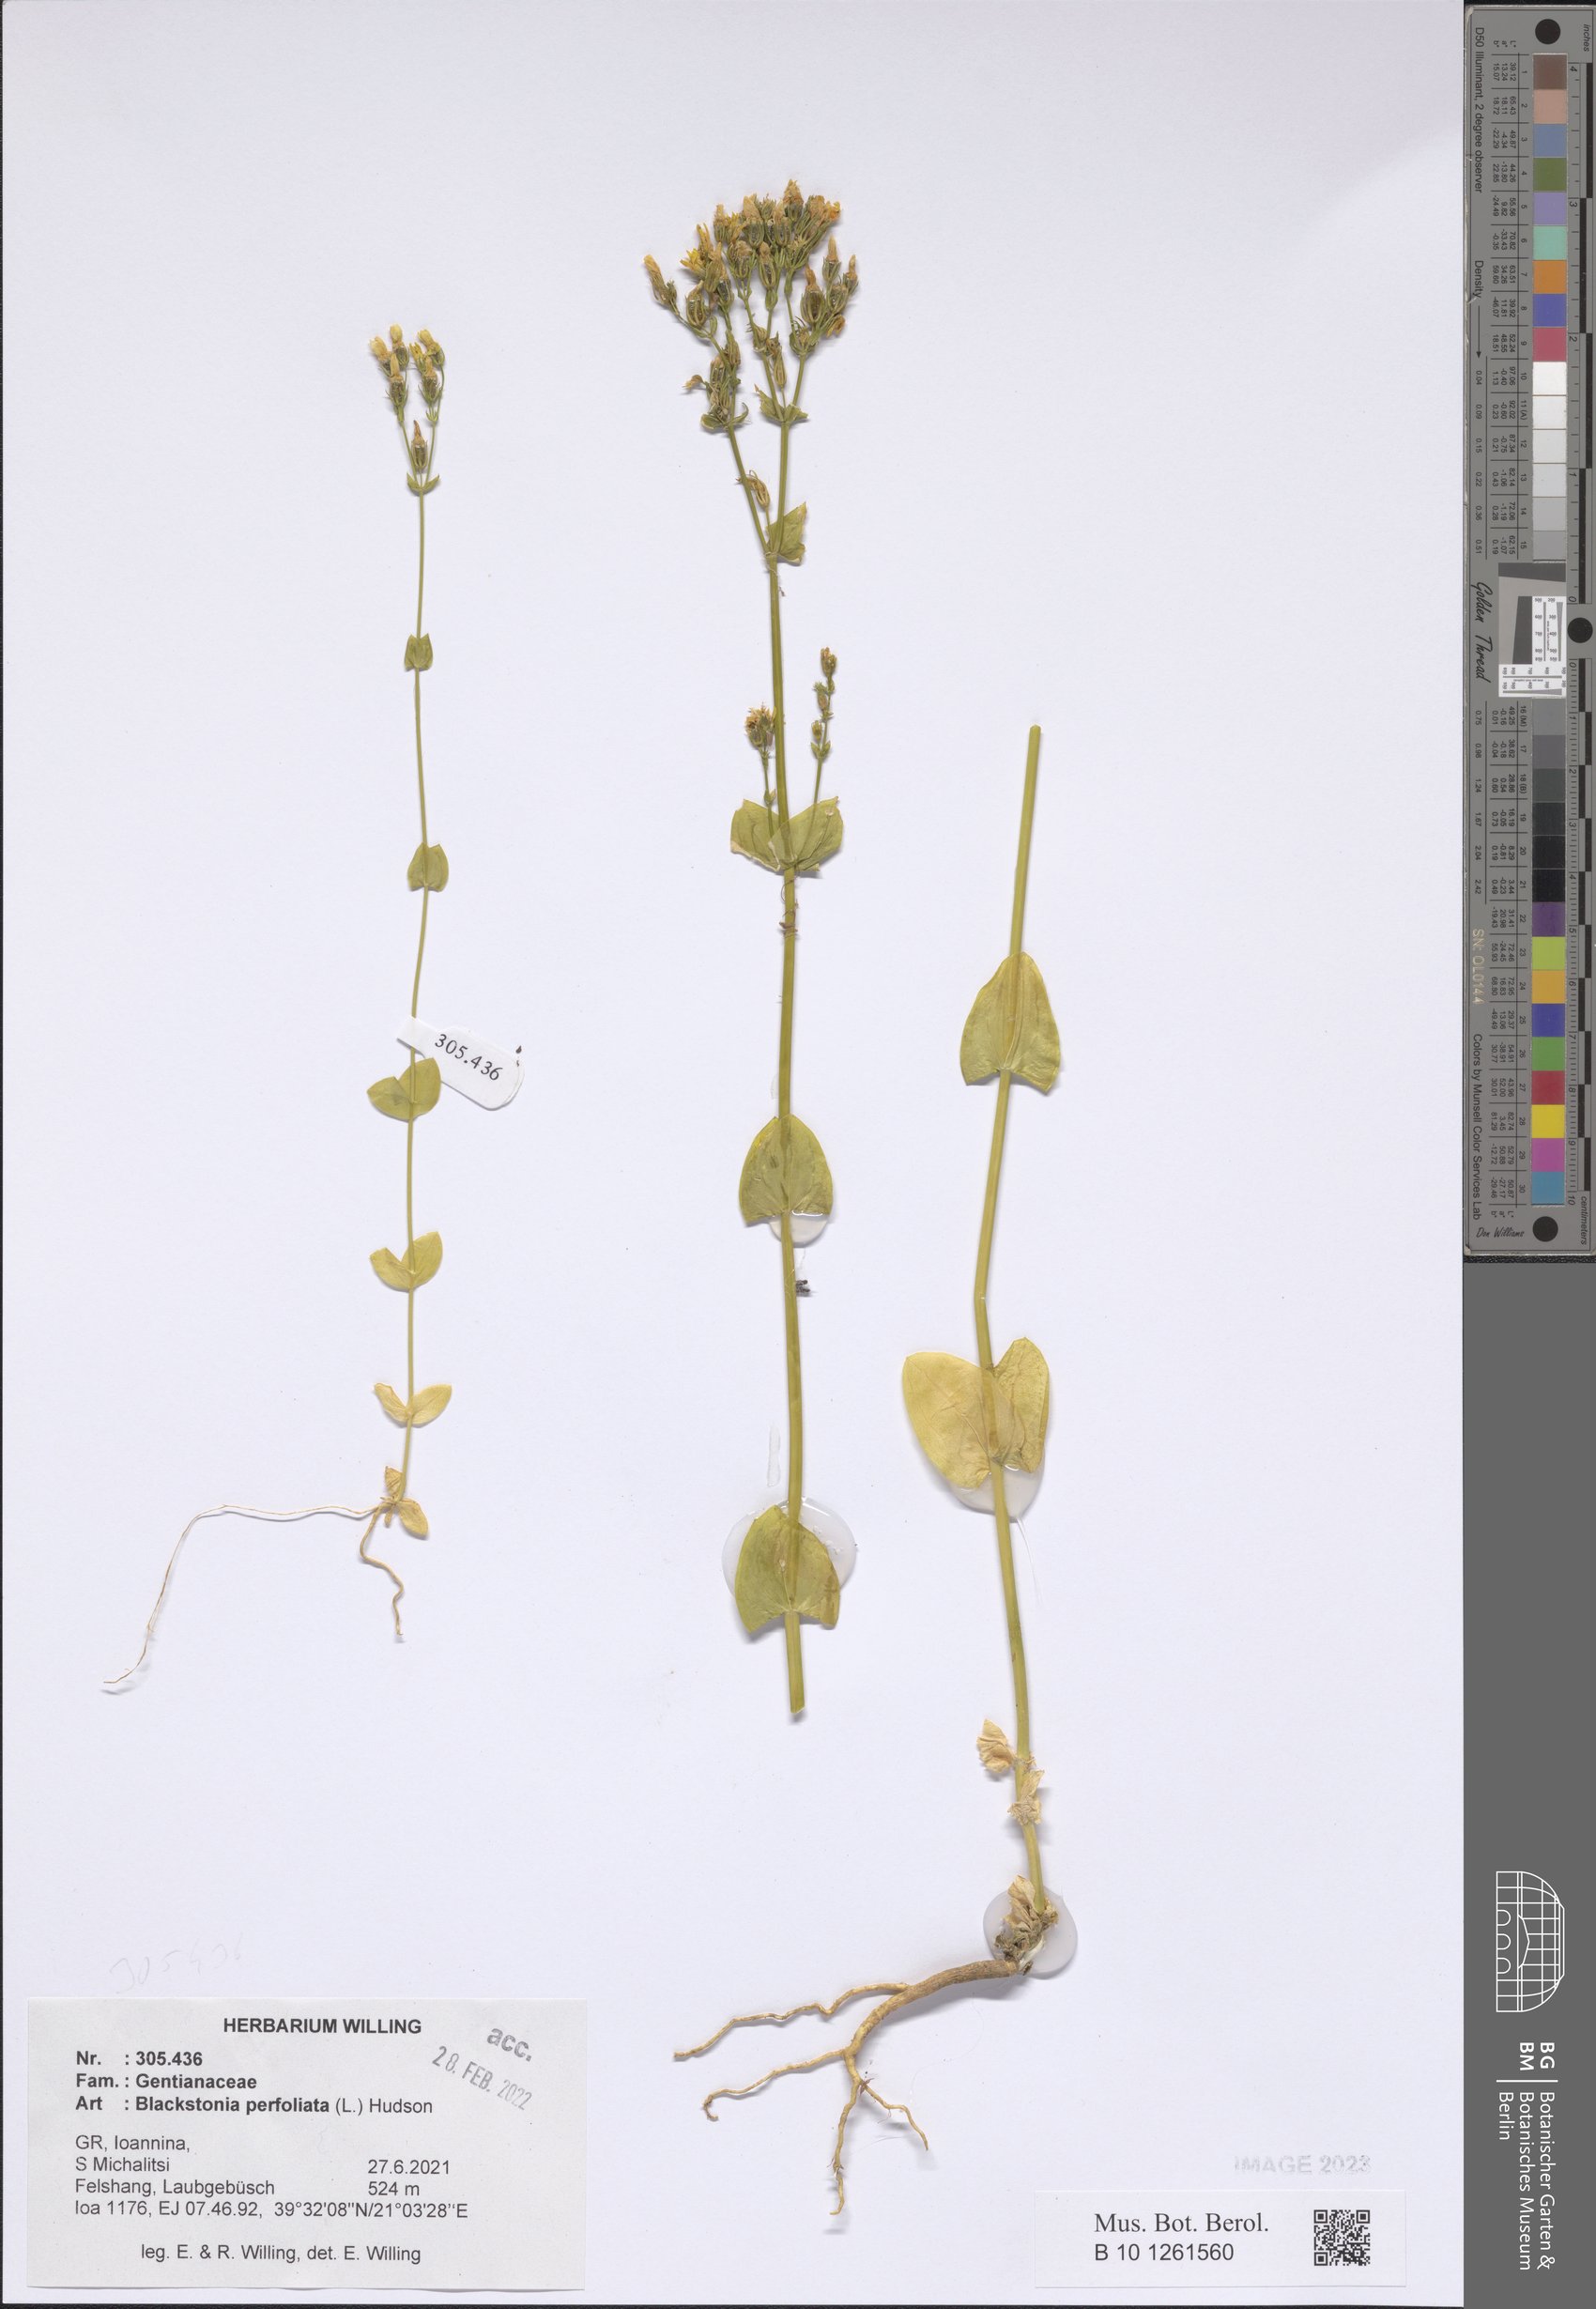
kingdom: Plantae
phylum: Tracheophyta
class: Magnoliopsida
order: Gentianales
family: Gentianaceae
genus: Blackstonia
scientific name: Blackstonia perfoliata
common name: Yellow-wort
